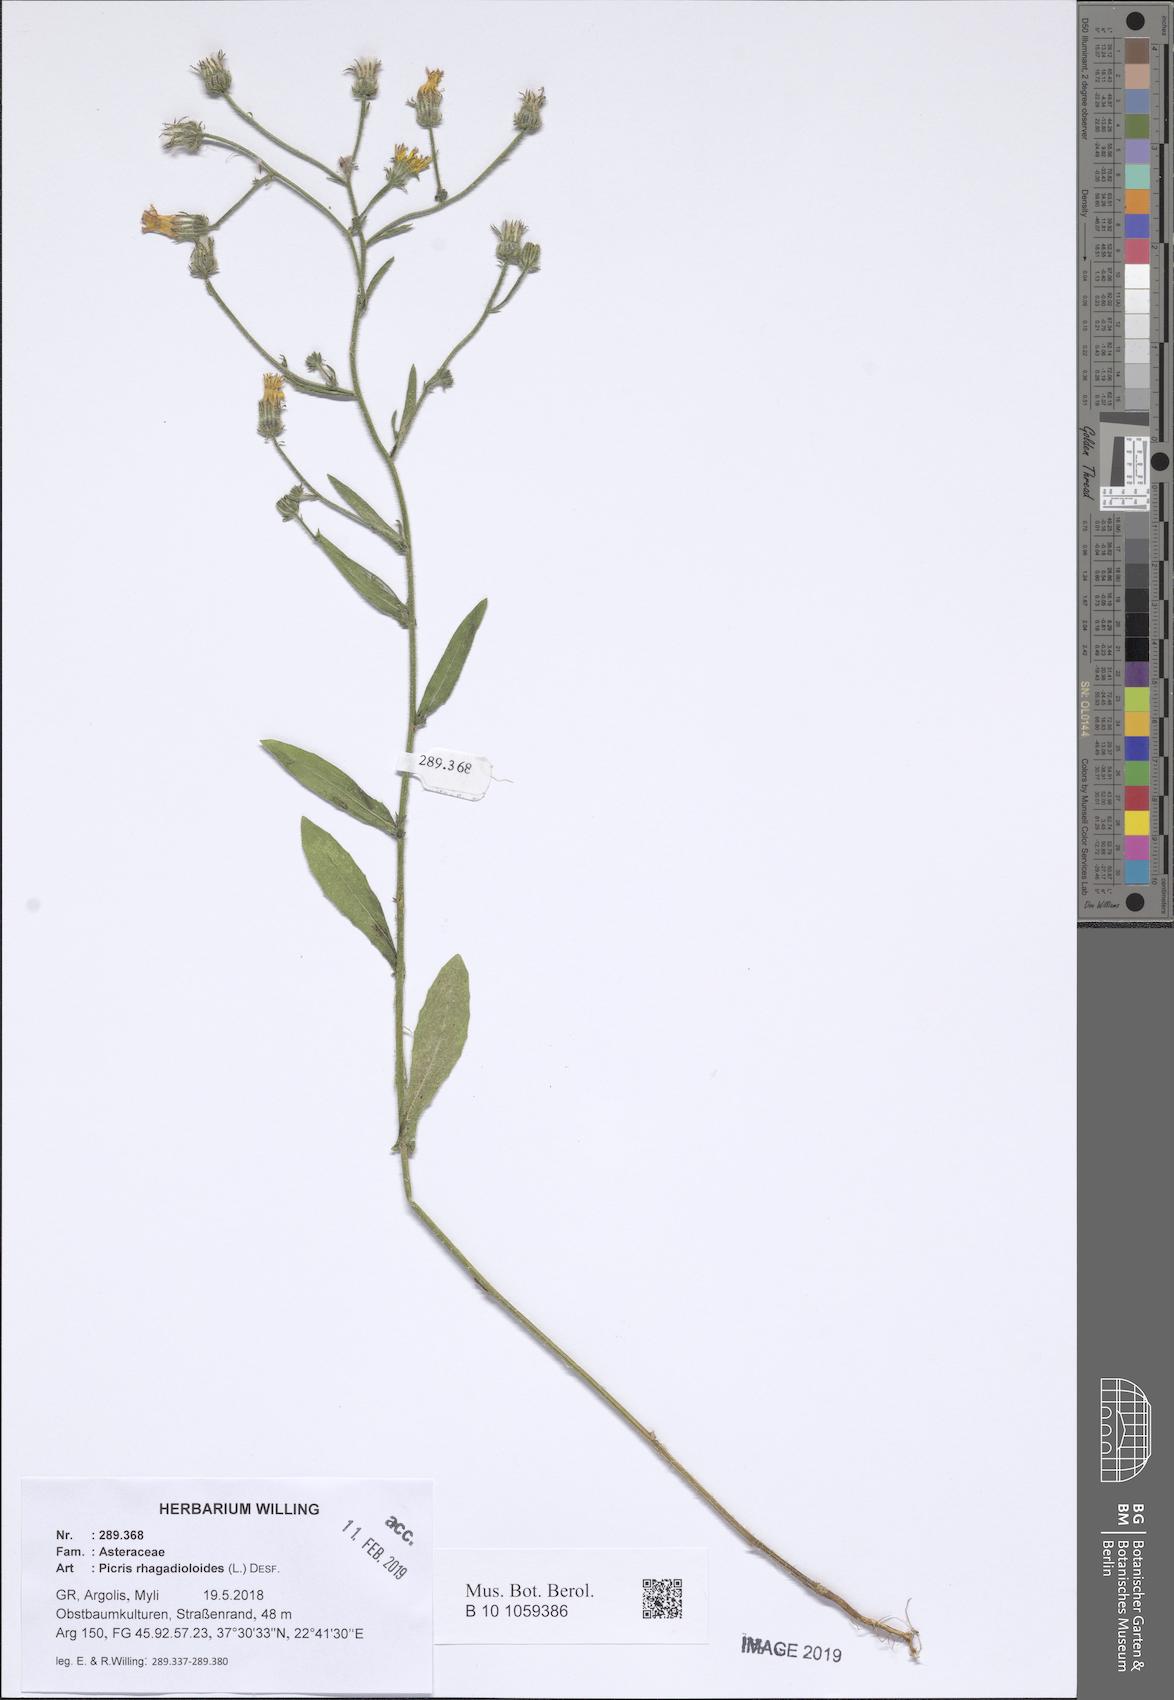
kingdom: Plantae
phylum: Tracheophyta
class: Magnoliopsida
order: Asterales
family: Asteraceae
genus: Picris
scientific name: Picris rhagadioloides
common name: Oxtongue
